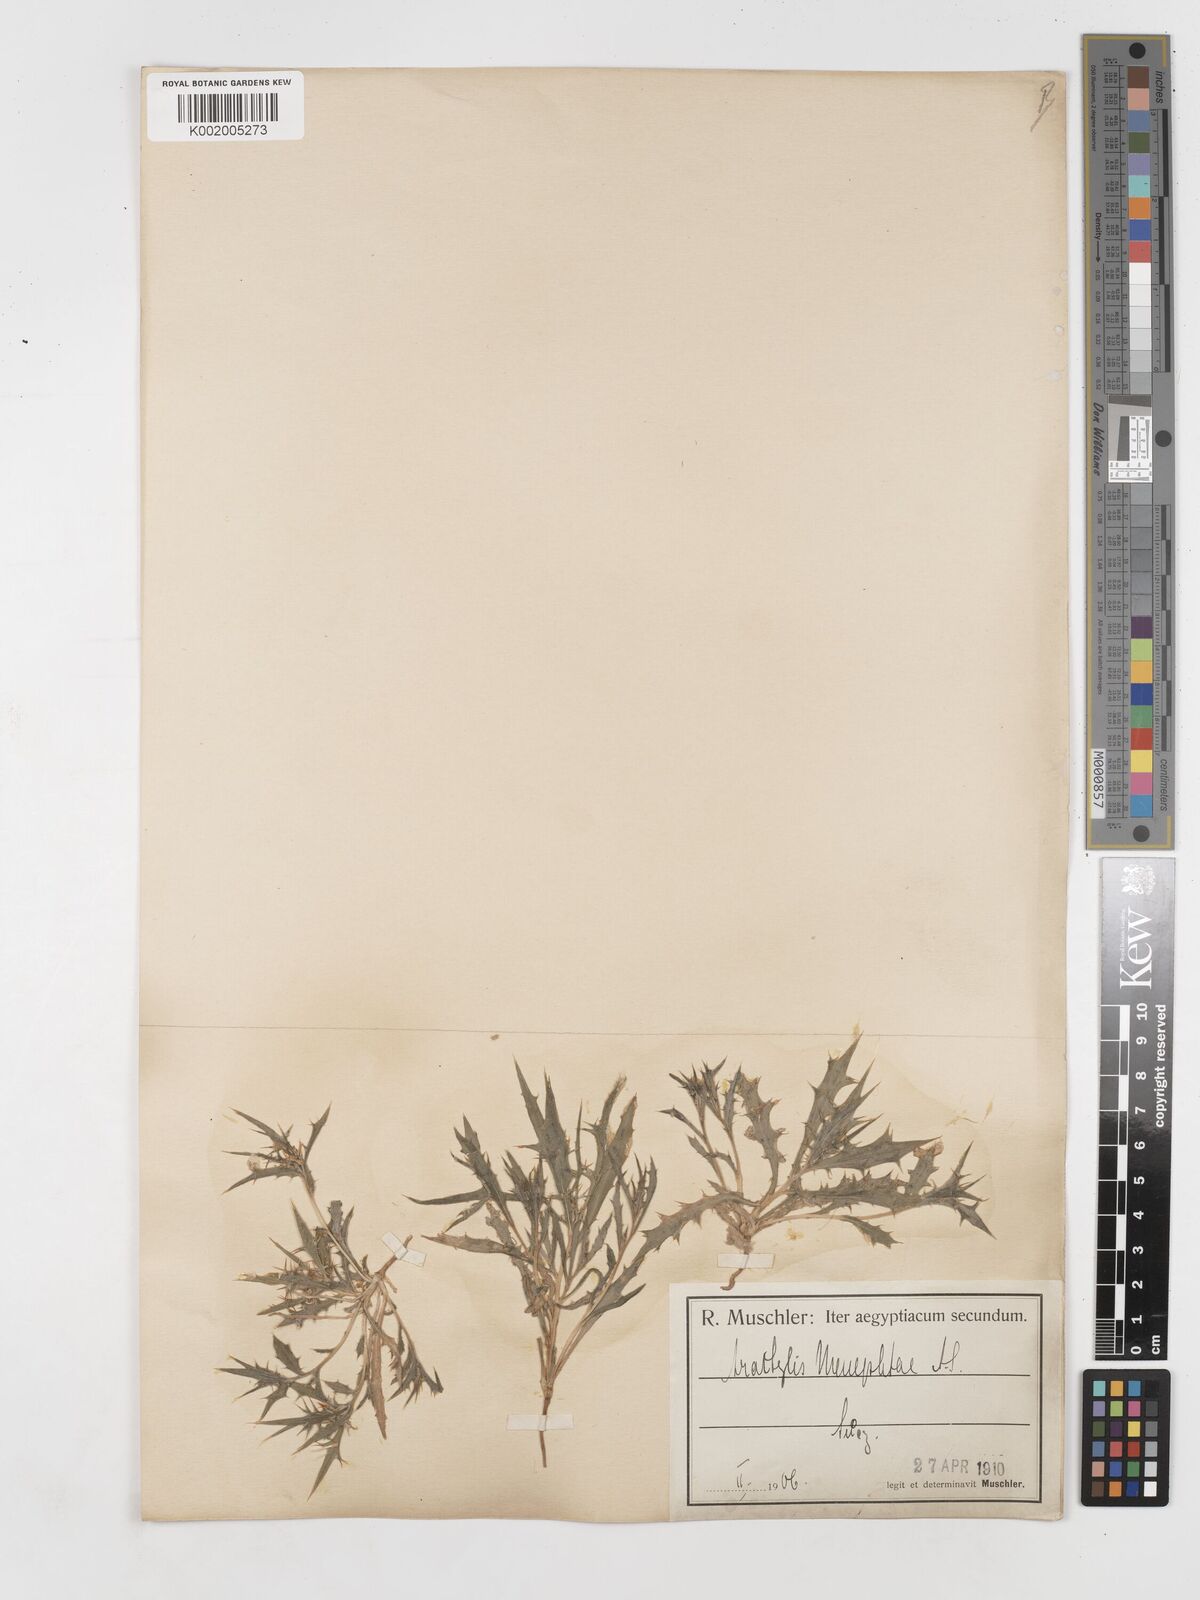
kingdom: Plantae
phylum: Tracheophyta
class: Magnoliopsida
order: Asterales
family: Asteraceae
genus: Atractylis
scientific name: Atractylis carduus
